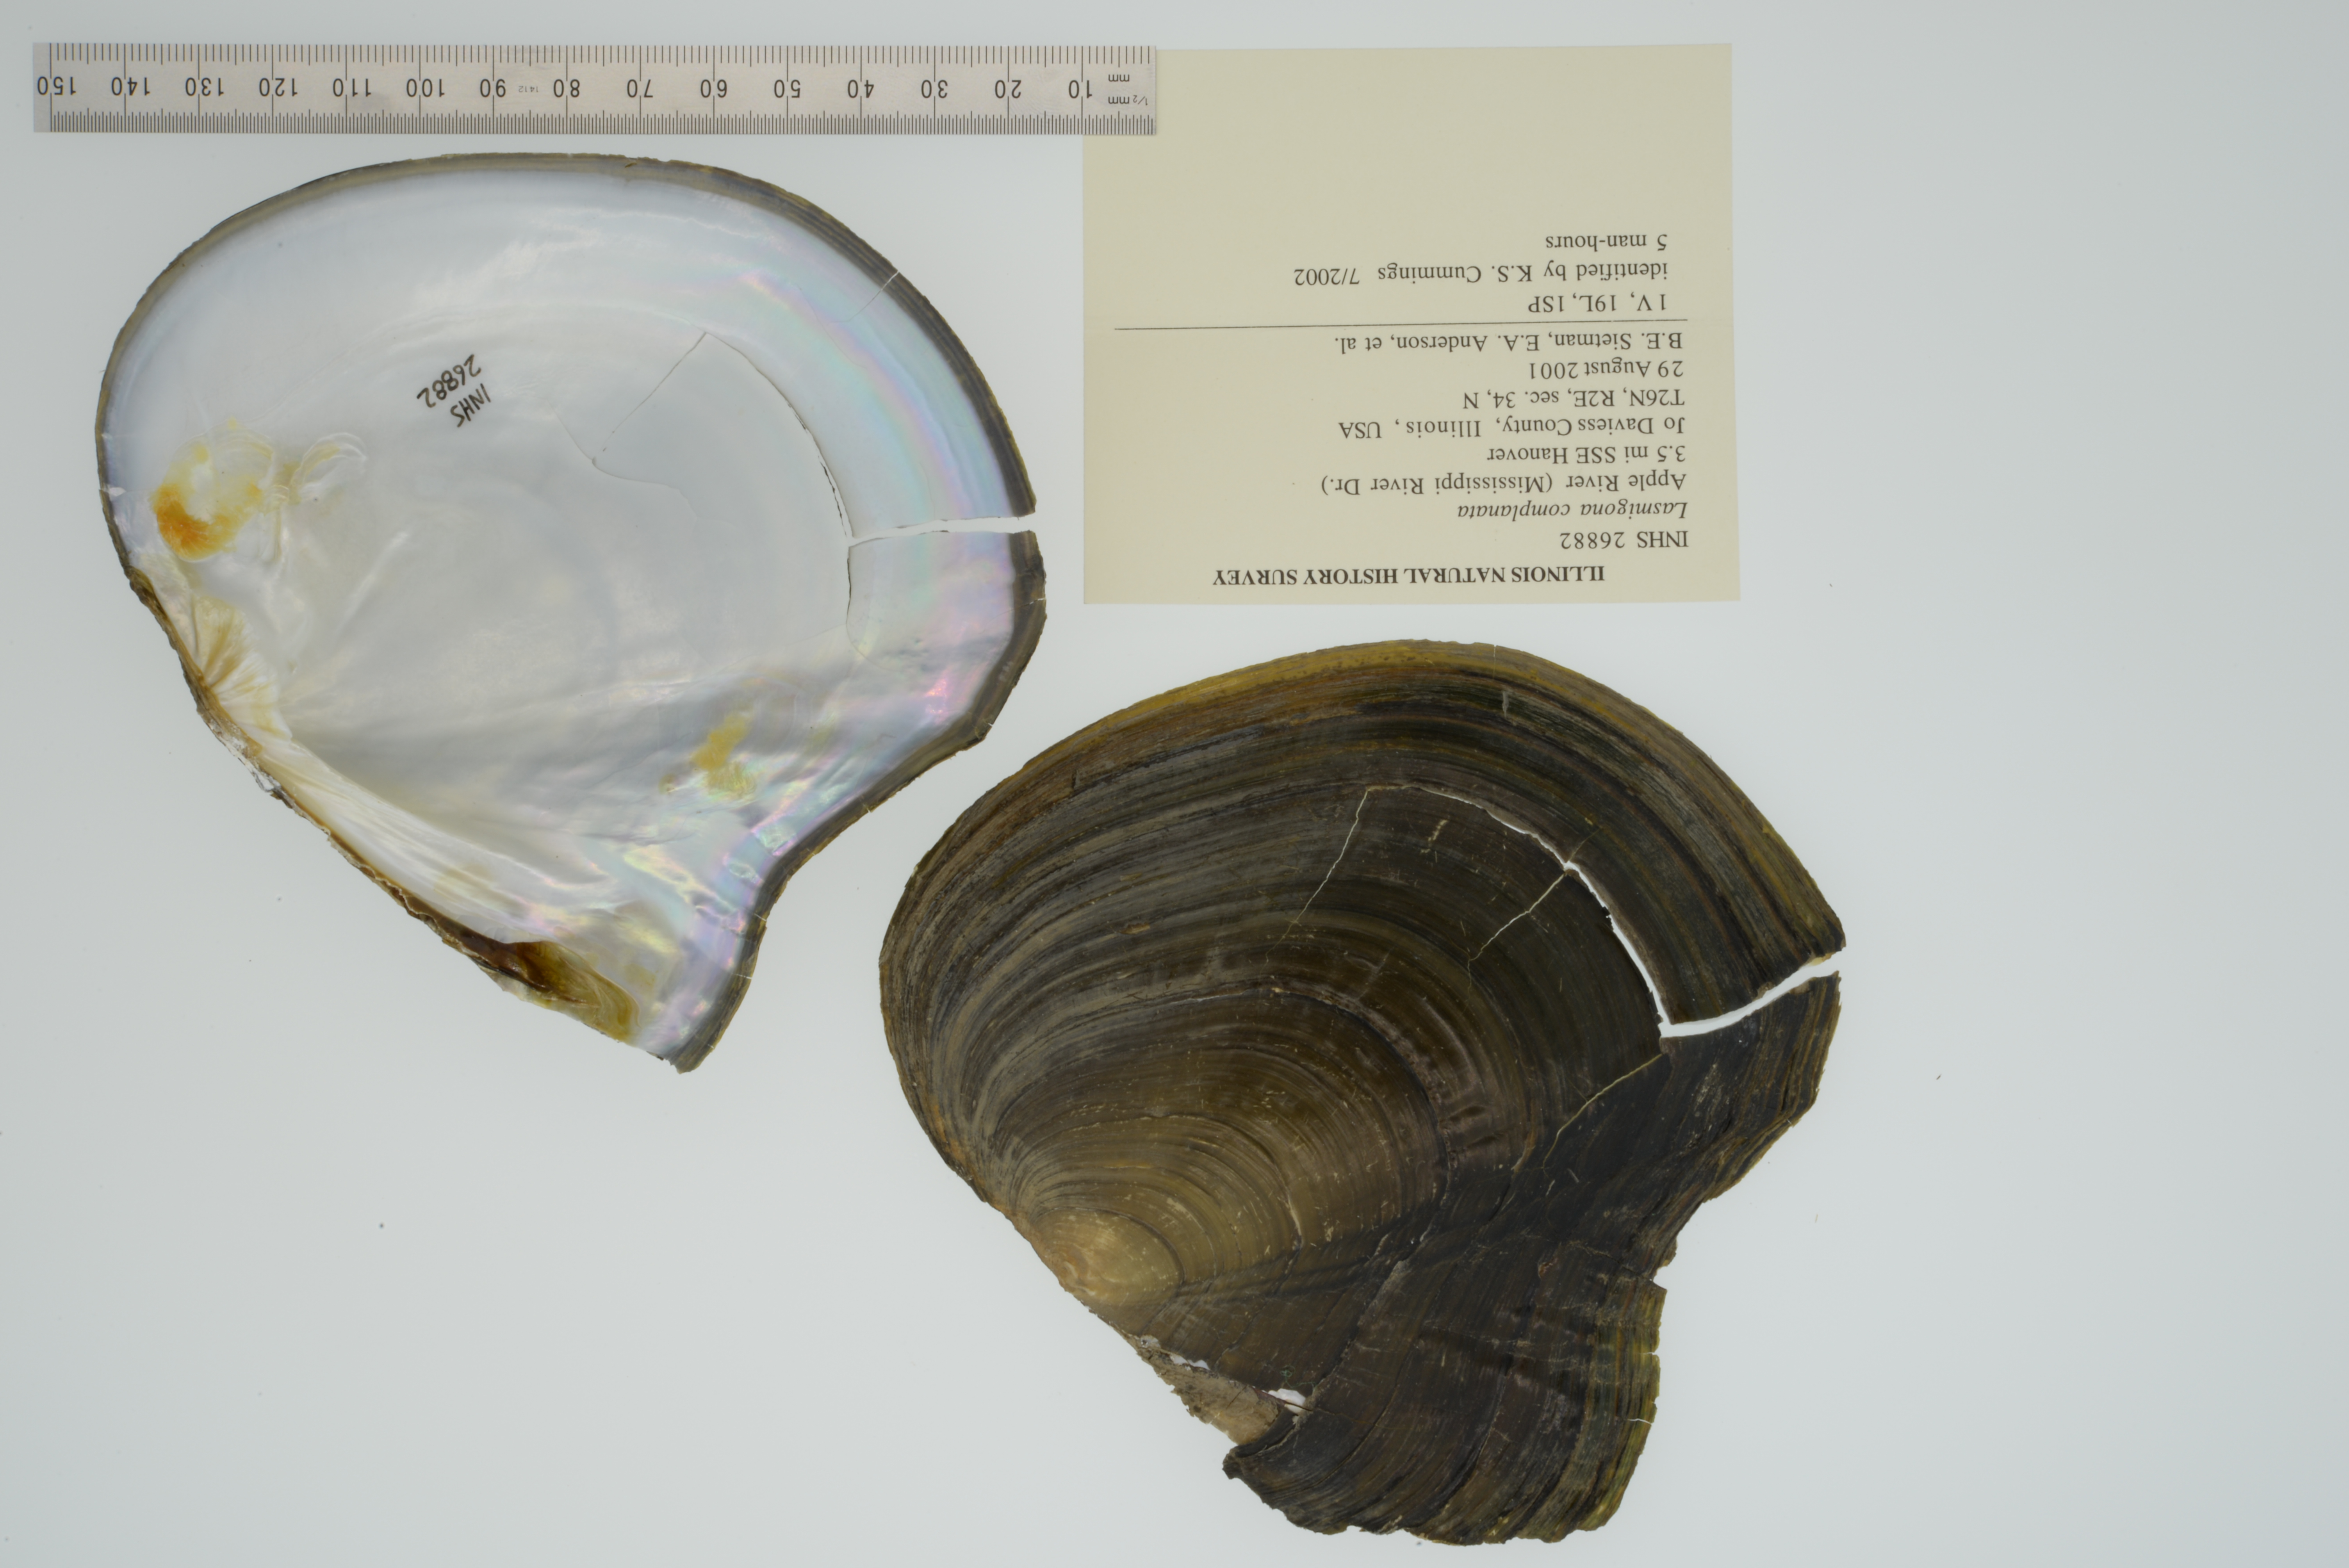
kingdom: Animalia
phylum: Mollusca
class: Bivalvia
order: Unionida
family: Unionidae
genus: Lasmigona
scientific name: Lasmigona complanata
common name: White heelsplitter
